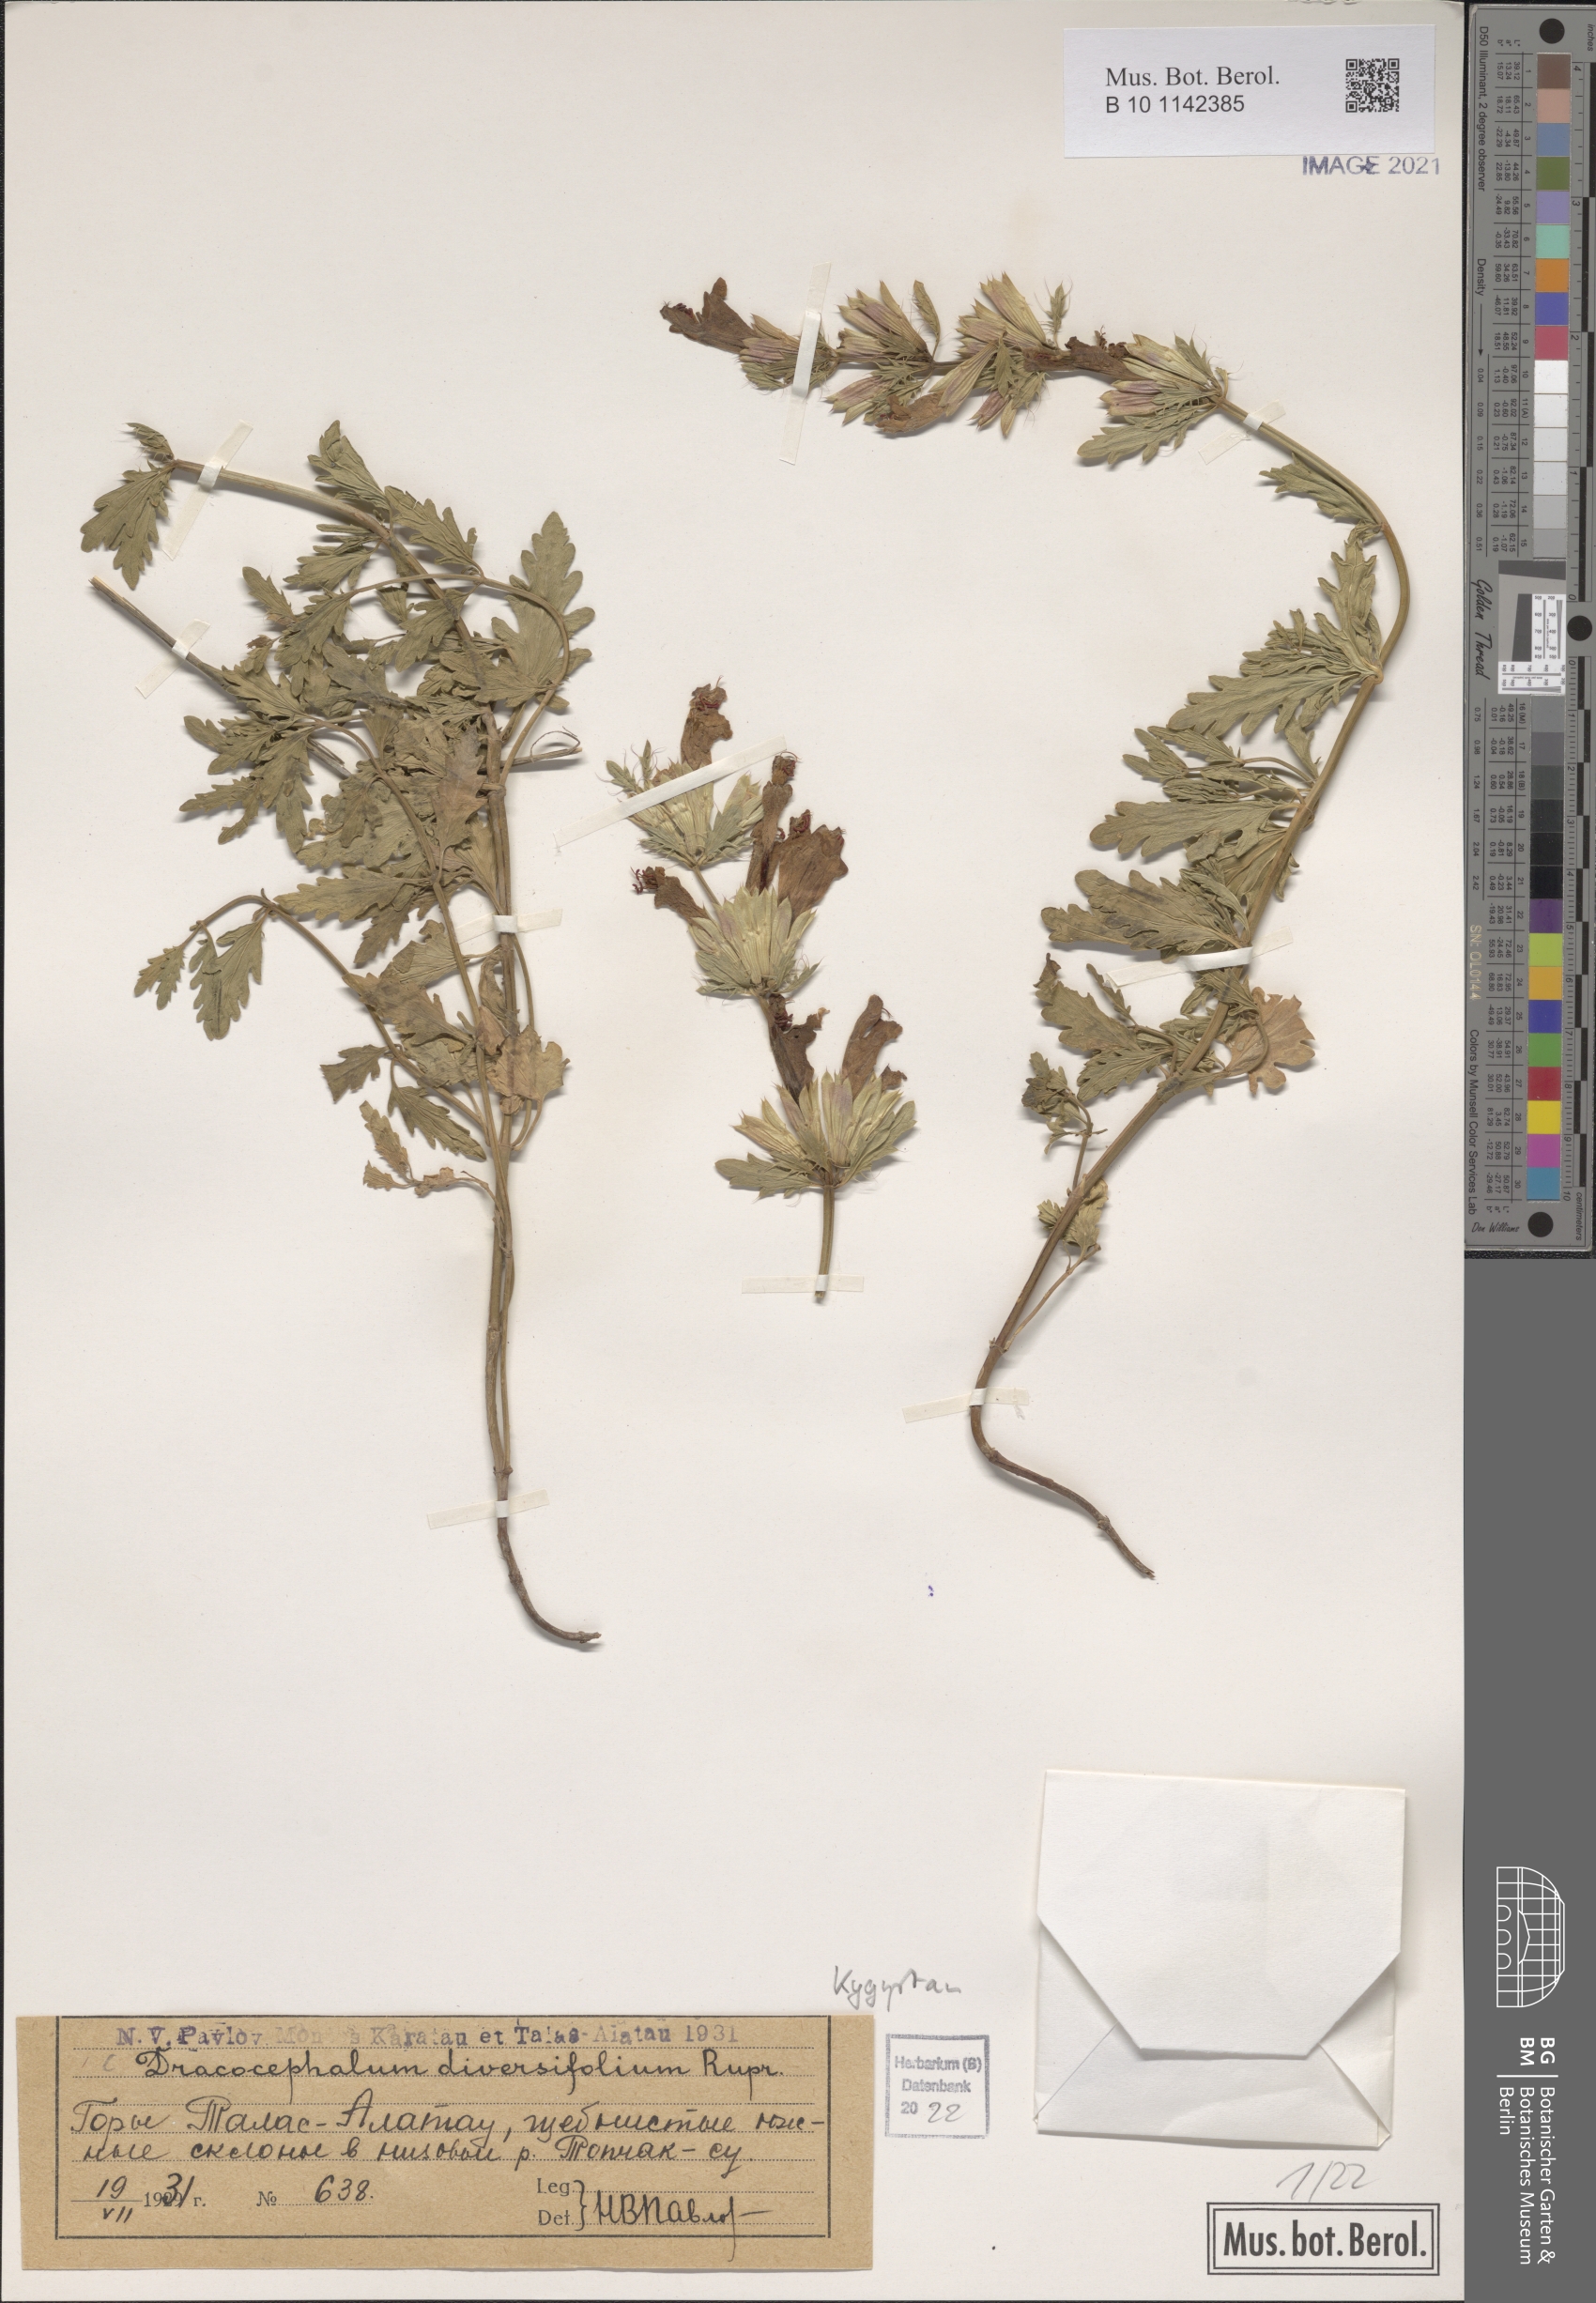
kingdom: Plantae
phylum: Tracheophyta
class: Magnoliopsida
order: Lamiales
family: Lamiaceae
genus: Dracocephalum
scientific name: Dracocephalum diversifolium
